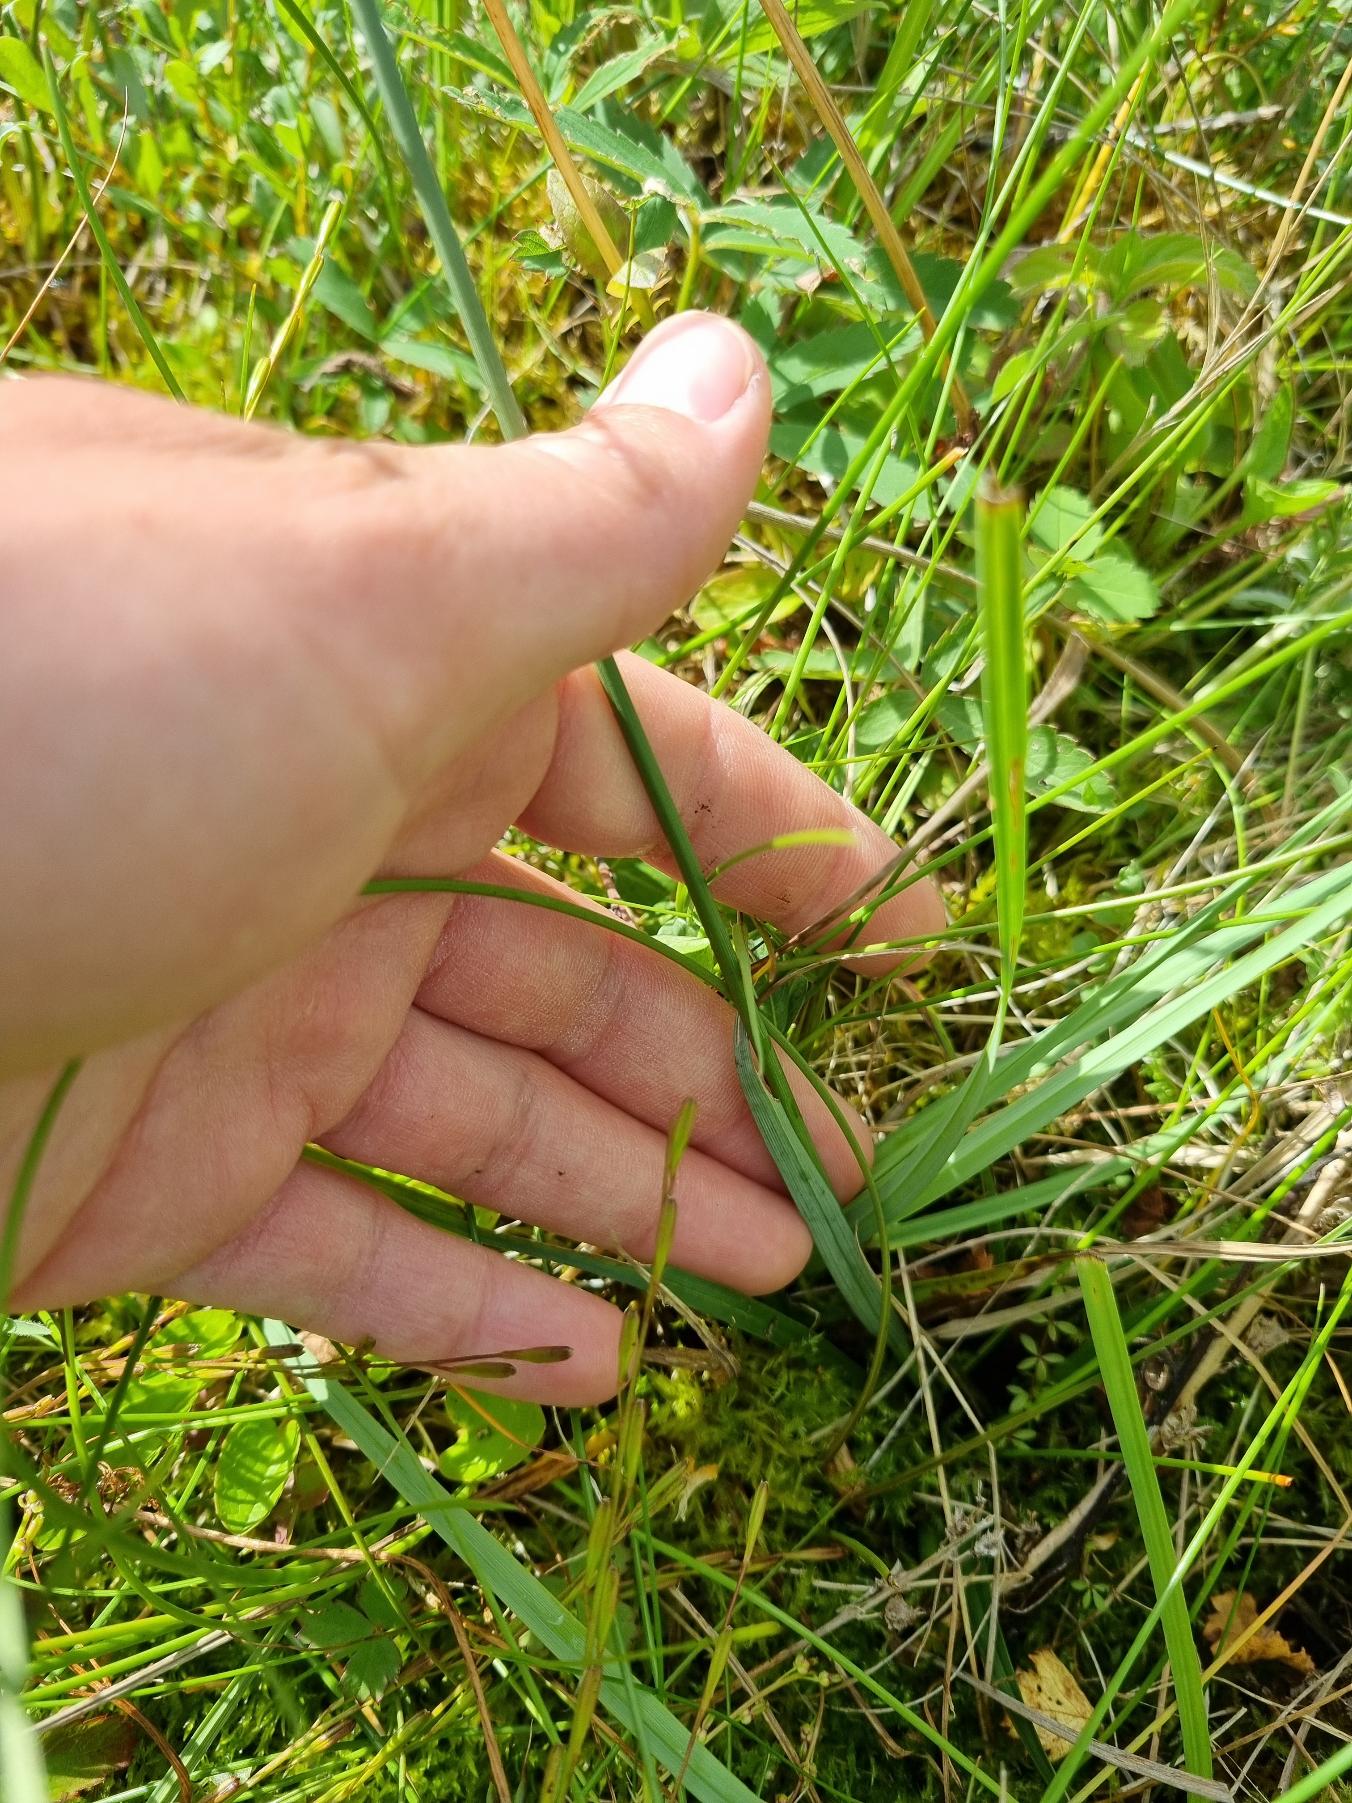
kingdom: Plantae
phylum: Tracheophyta
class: Liliopsida
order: Poales
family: Cyperaceae
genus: Carex
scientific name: Carex flacca
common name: Blågrøn star
